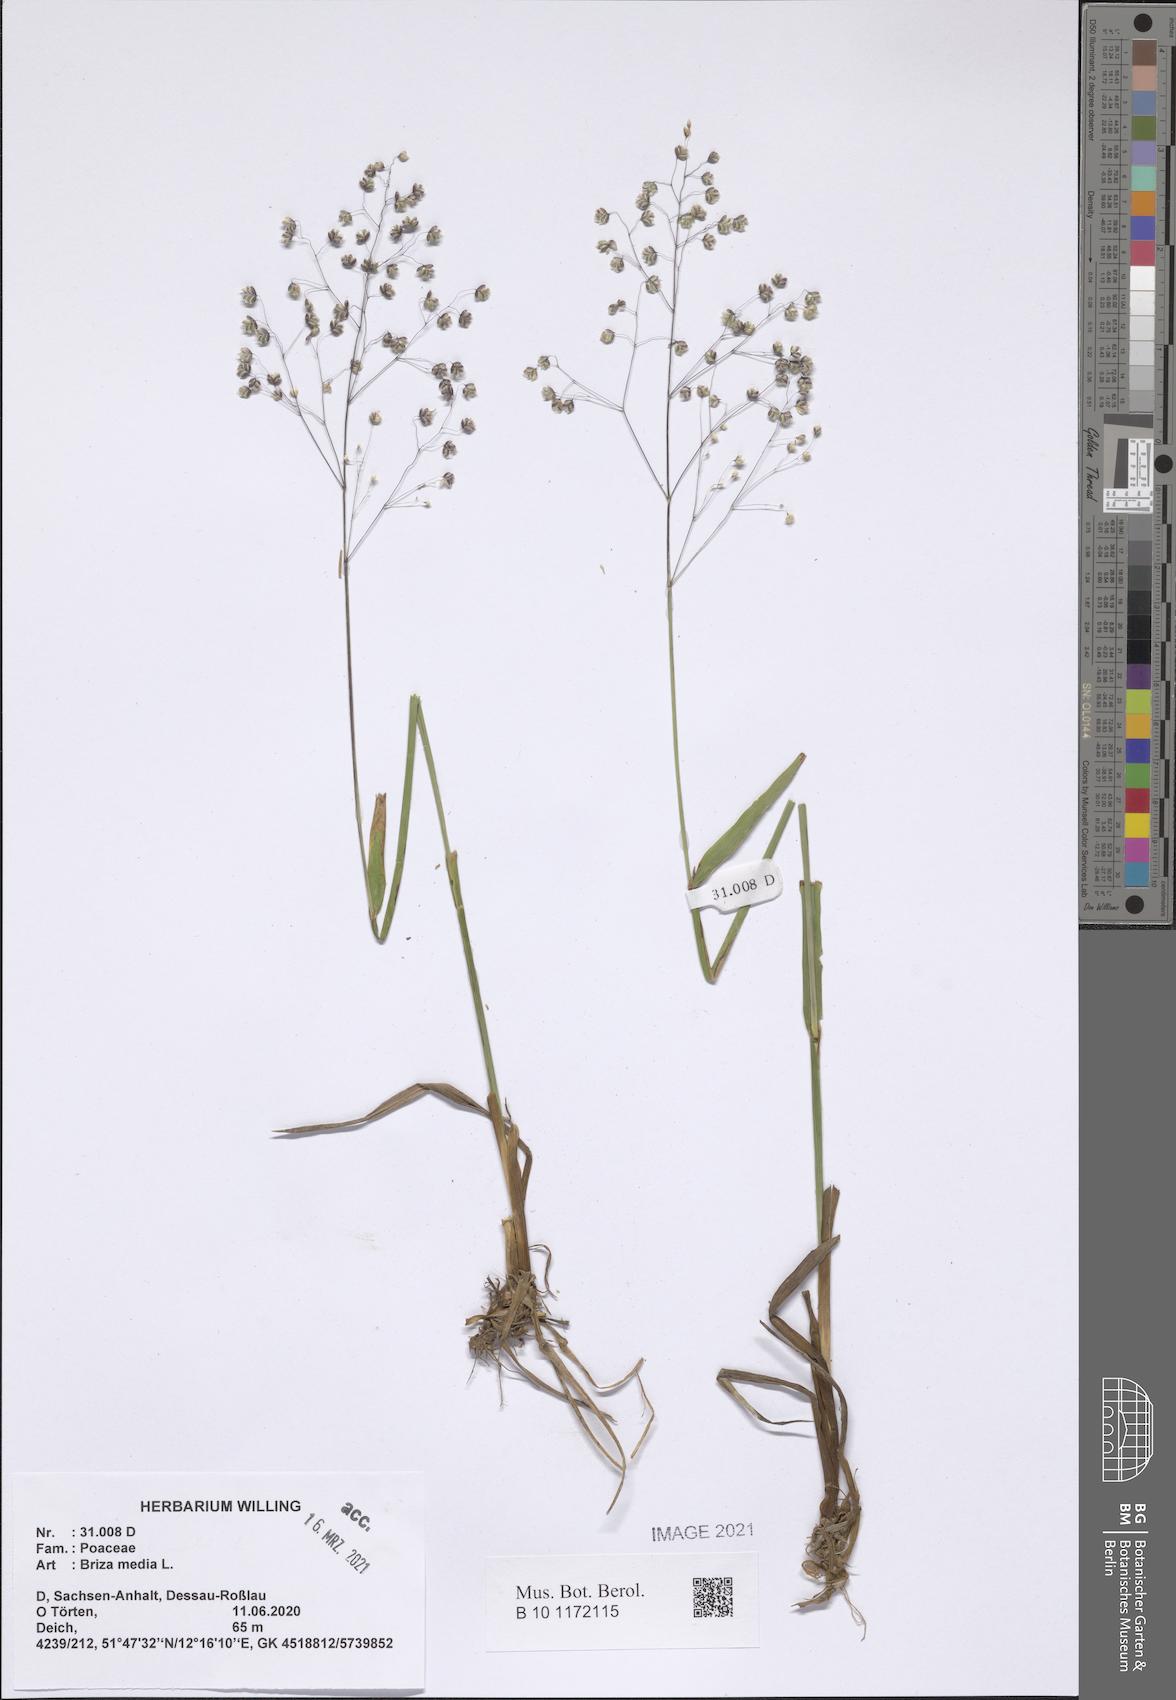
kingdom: Plantae
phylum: Tracheophyta
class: Liliopsida
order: Poales
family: Poaceae
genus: Briza
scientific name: Briza media
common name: Quaking grass
